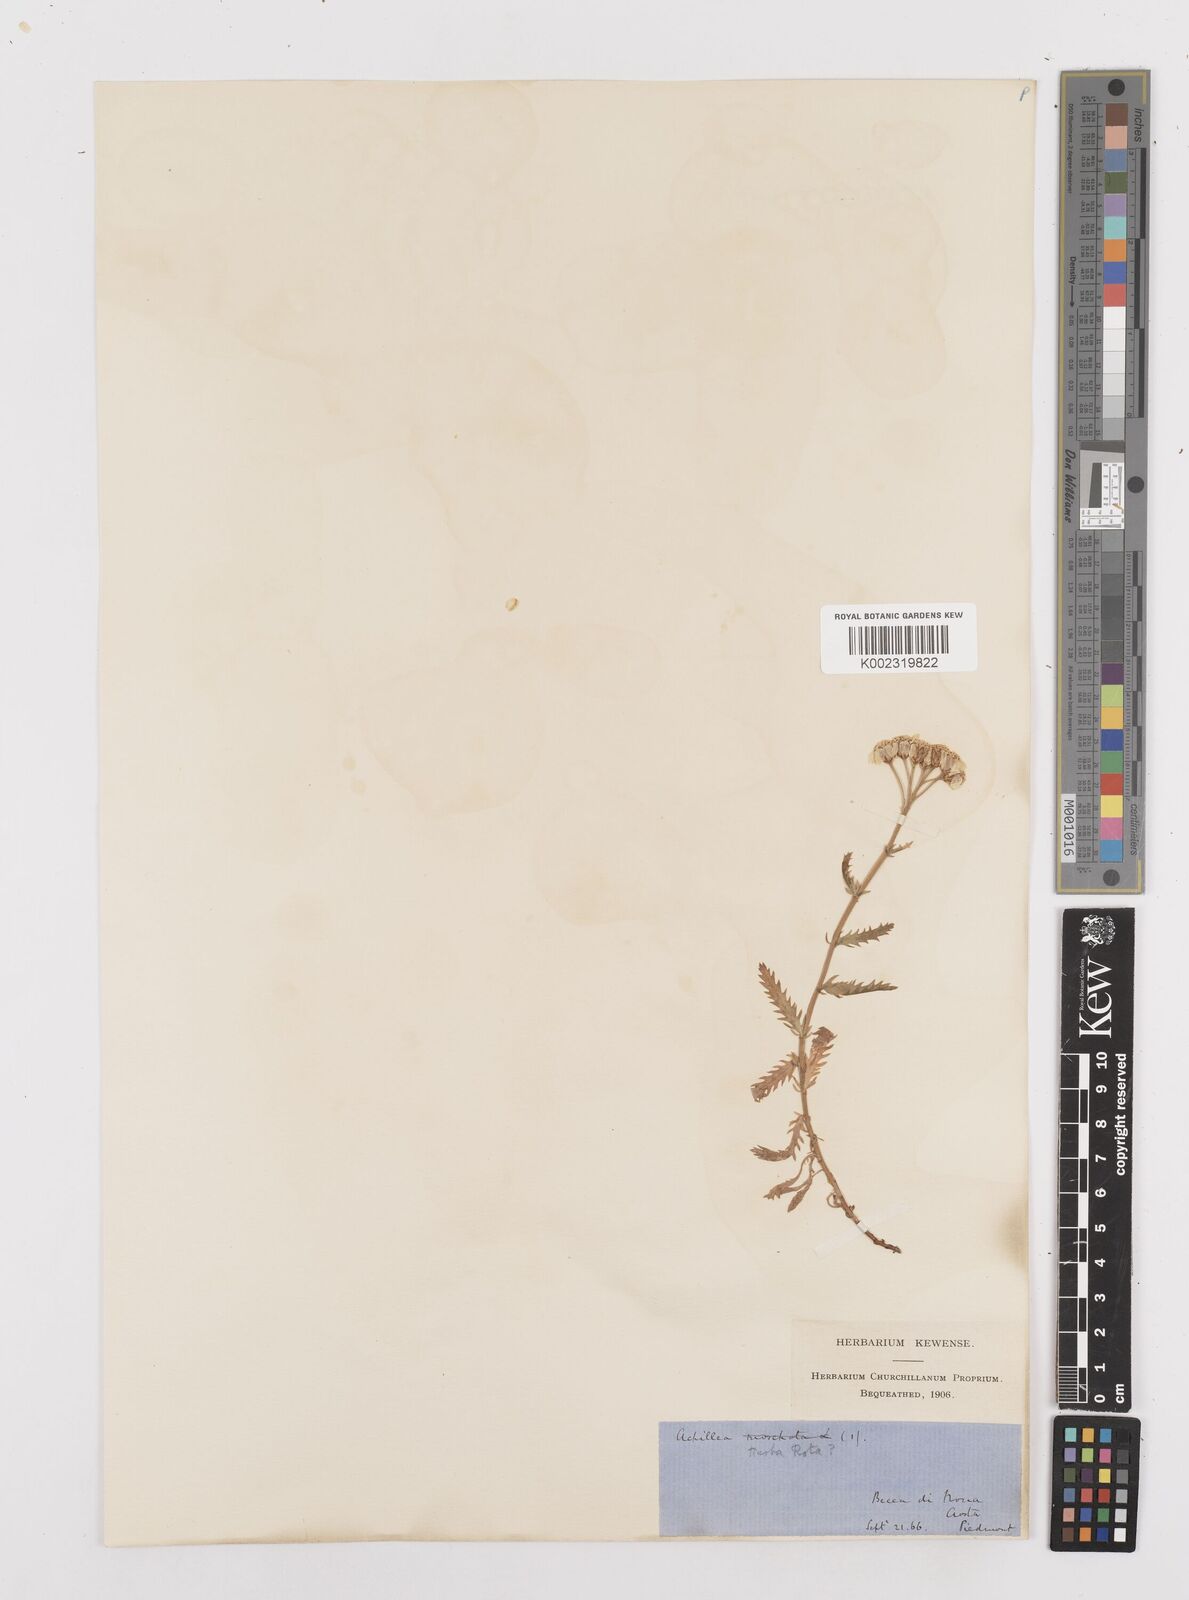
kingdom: Plantae
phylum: Tracheophyta
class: Magnoliopsida
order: Asterales
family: Asteraceae
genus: Achillea
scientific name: Achillea erba-rotta
